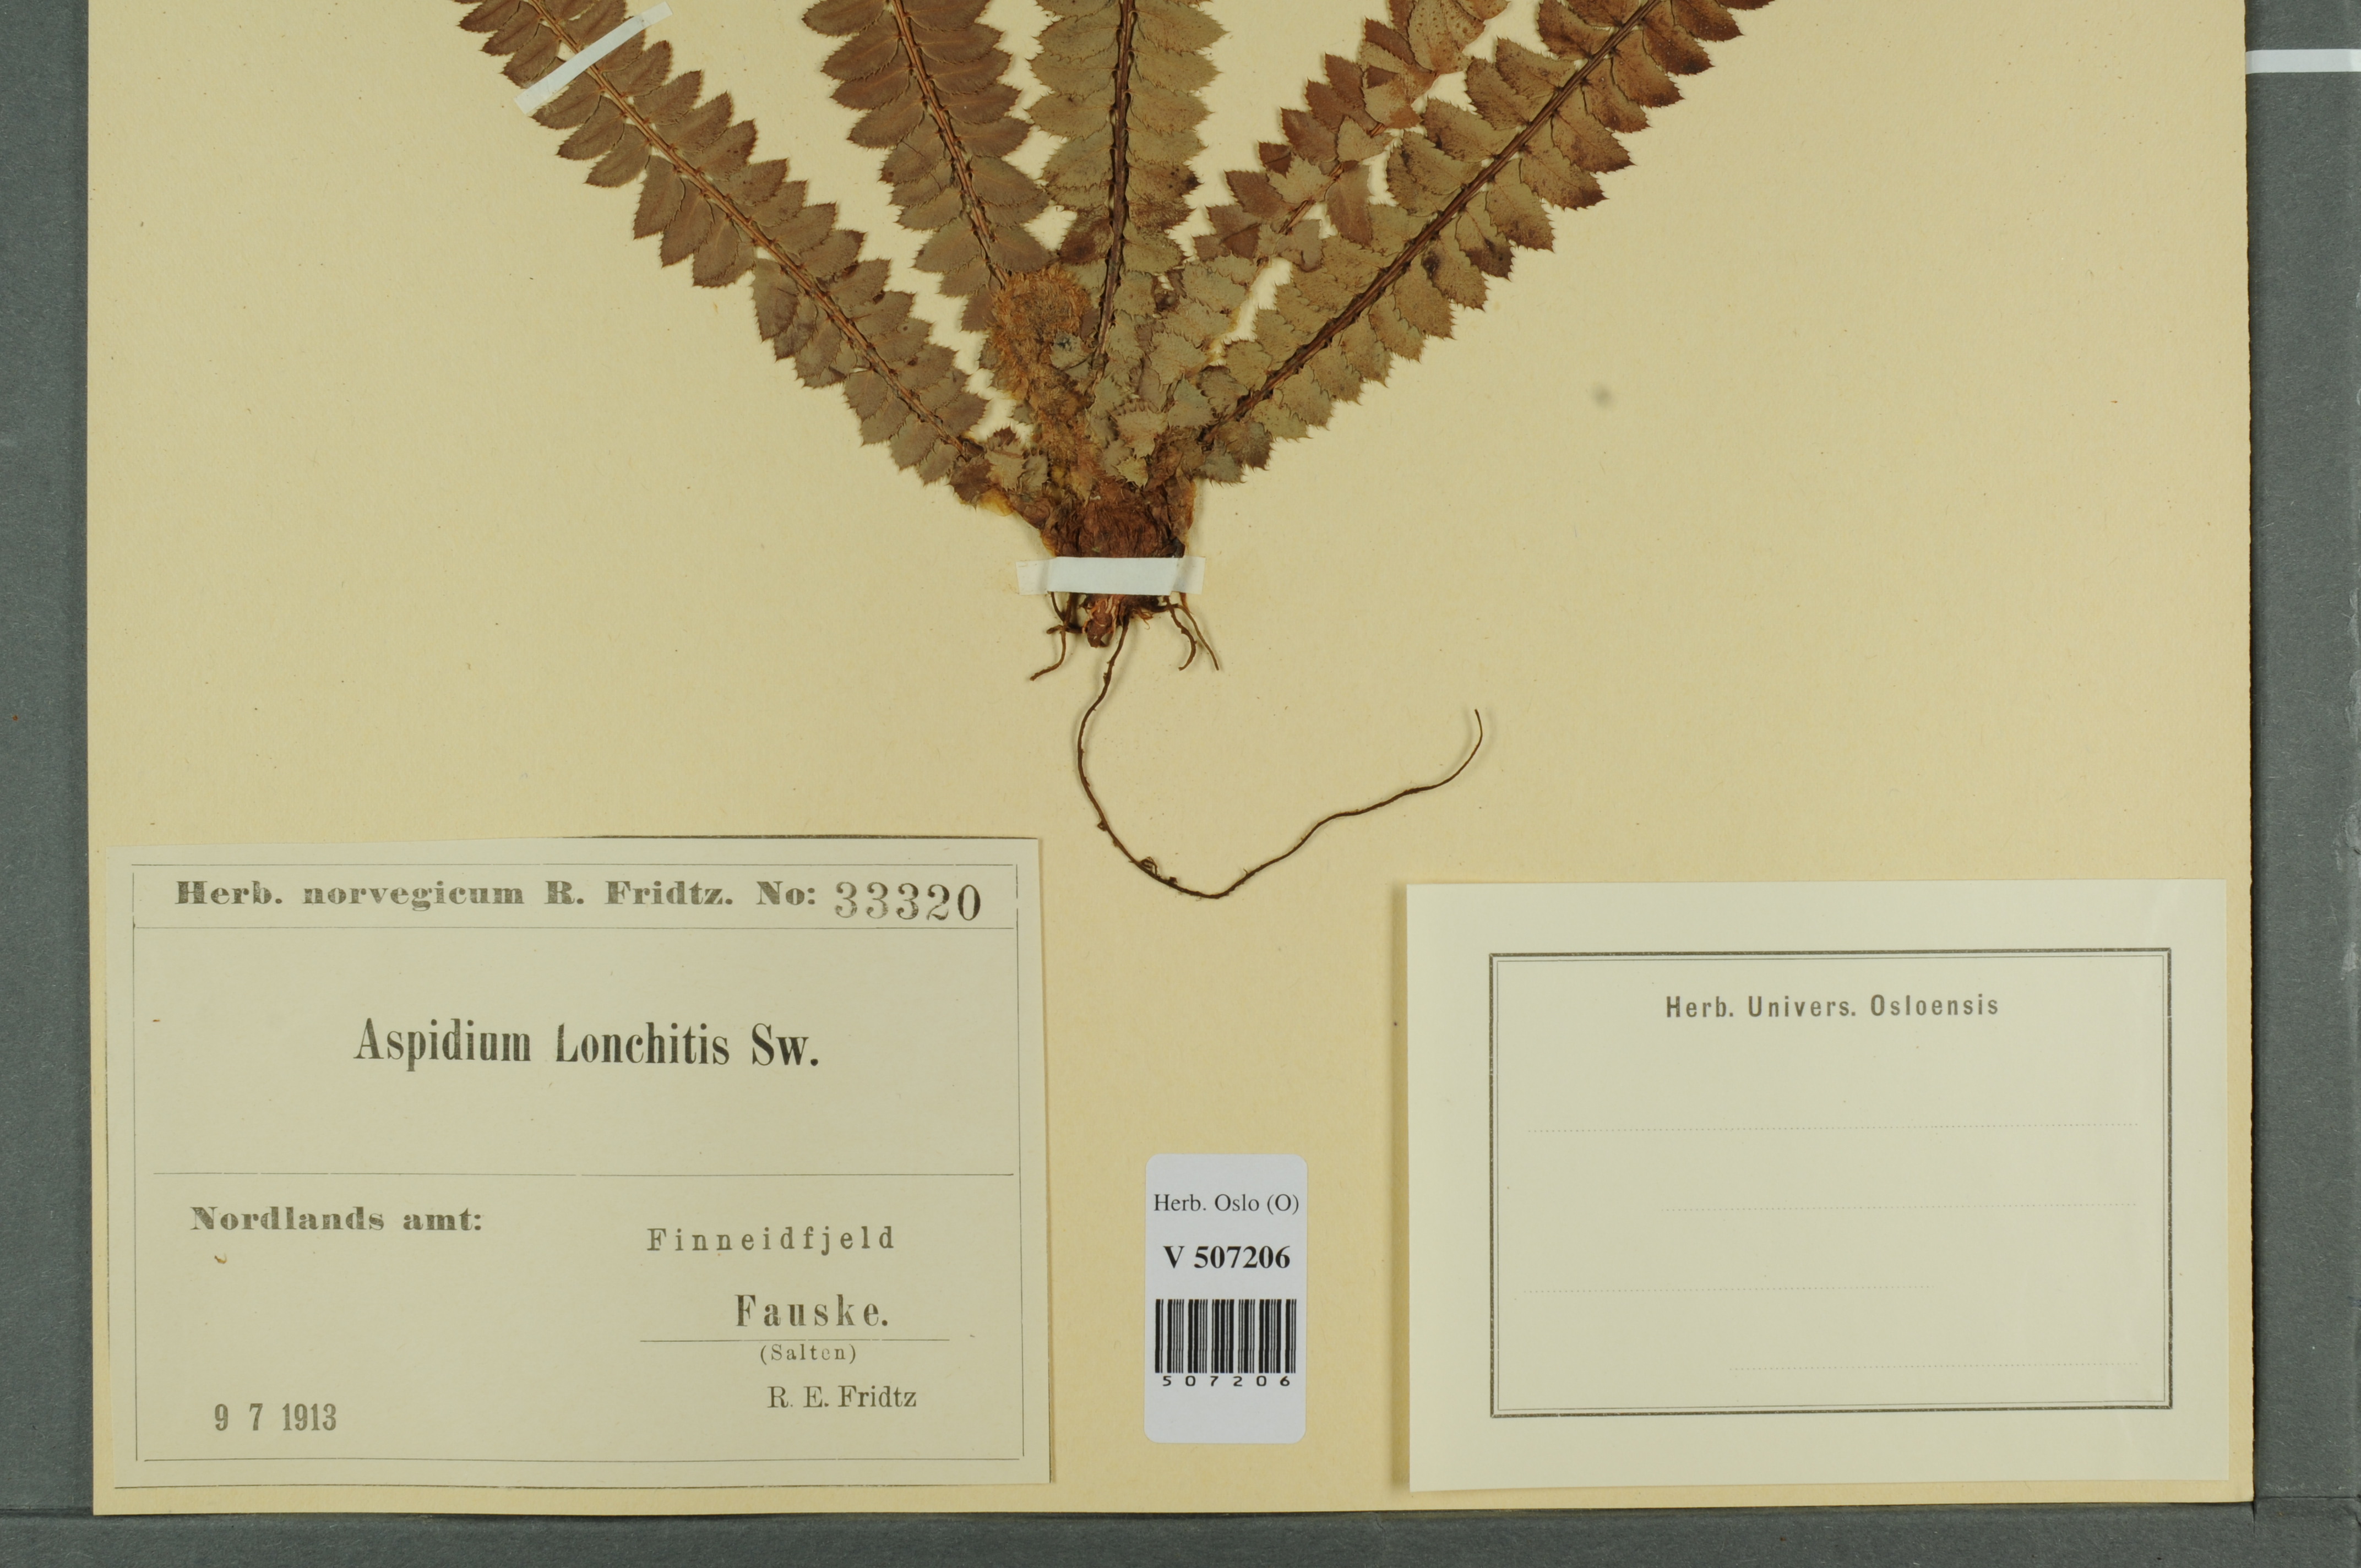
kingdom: Plantae
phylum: Tracheophyta
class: Polypodiopsida
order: Polypodiales
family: Dryopteridaceae
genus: Polystichum
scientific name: Polystichum lonchitis
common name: Holly fern
